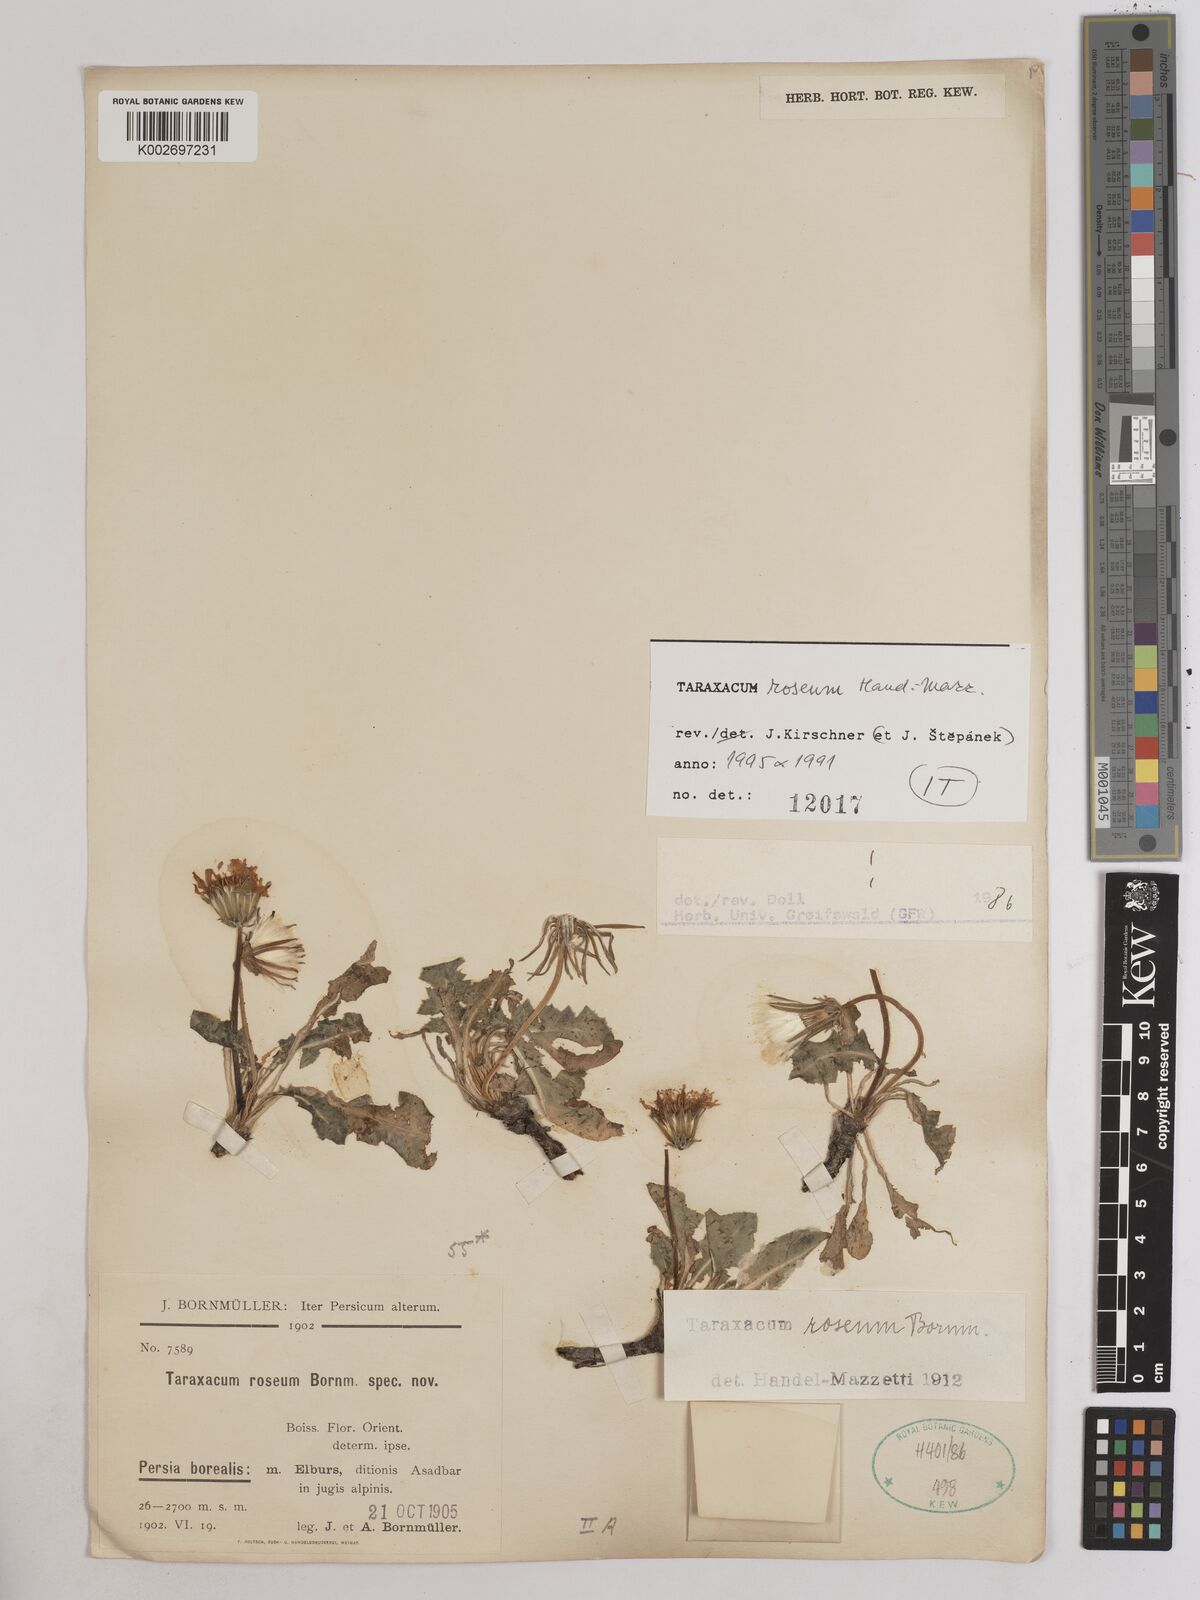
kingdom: Plantae
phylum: Tracheophyta
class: Magnoliopsida
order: Asterales
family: Asteraceae
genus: Taraxacum
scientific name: Taraxacum roseum
